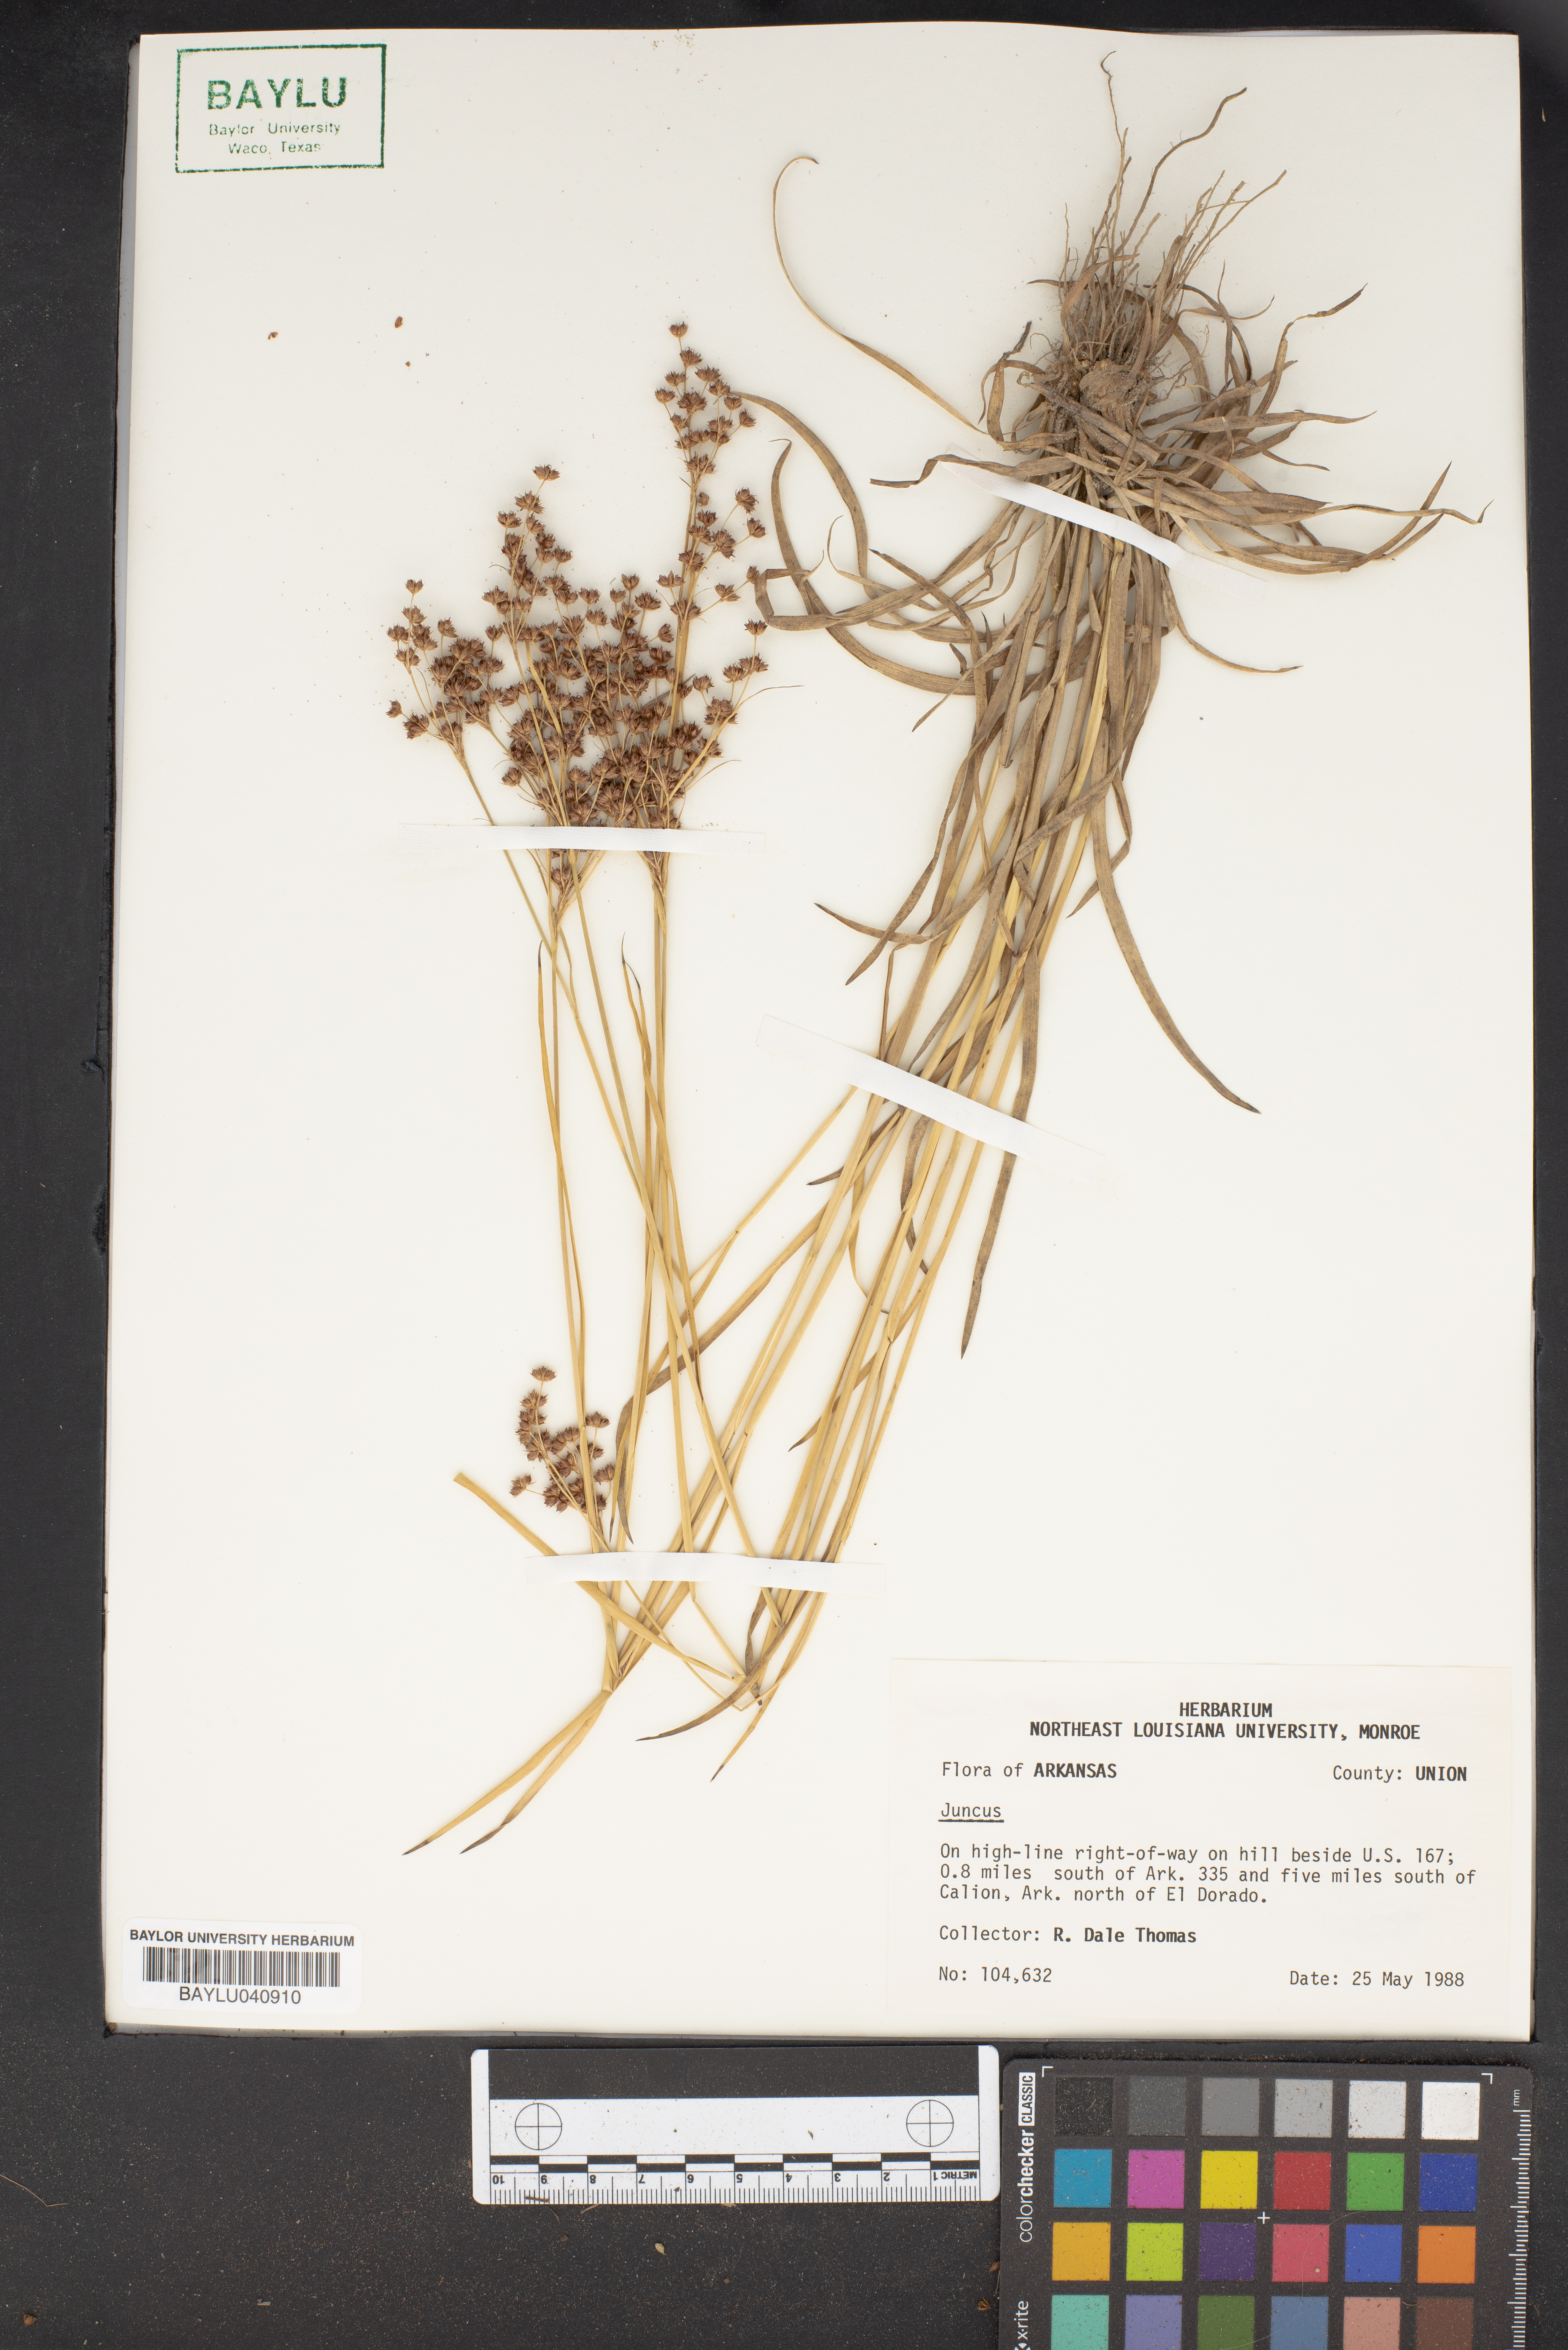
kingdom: Plantae
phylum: Tracheophyta
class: Liliopsida
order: Poales
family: Juncaceae
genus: Juncus
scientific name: Juncus
